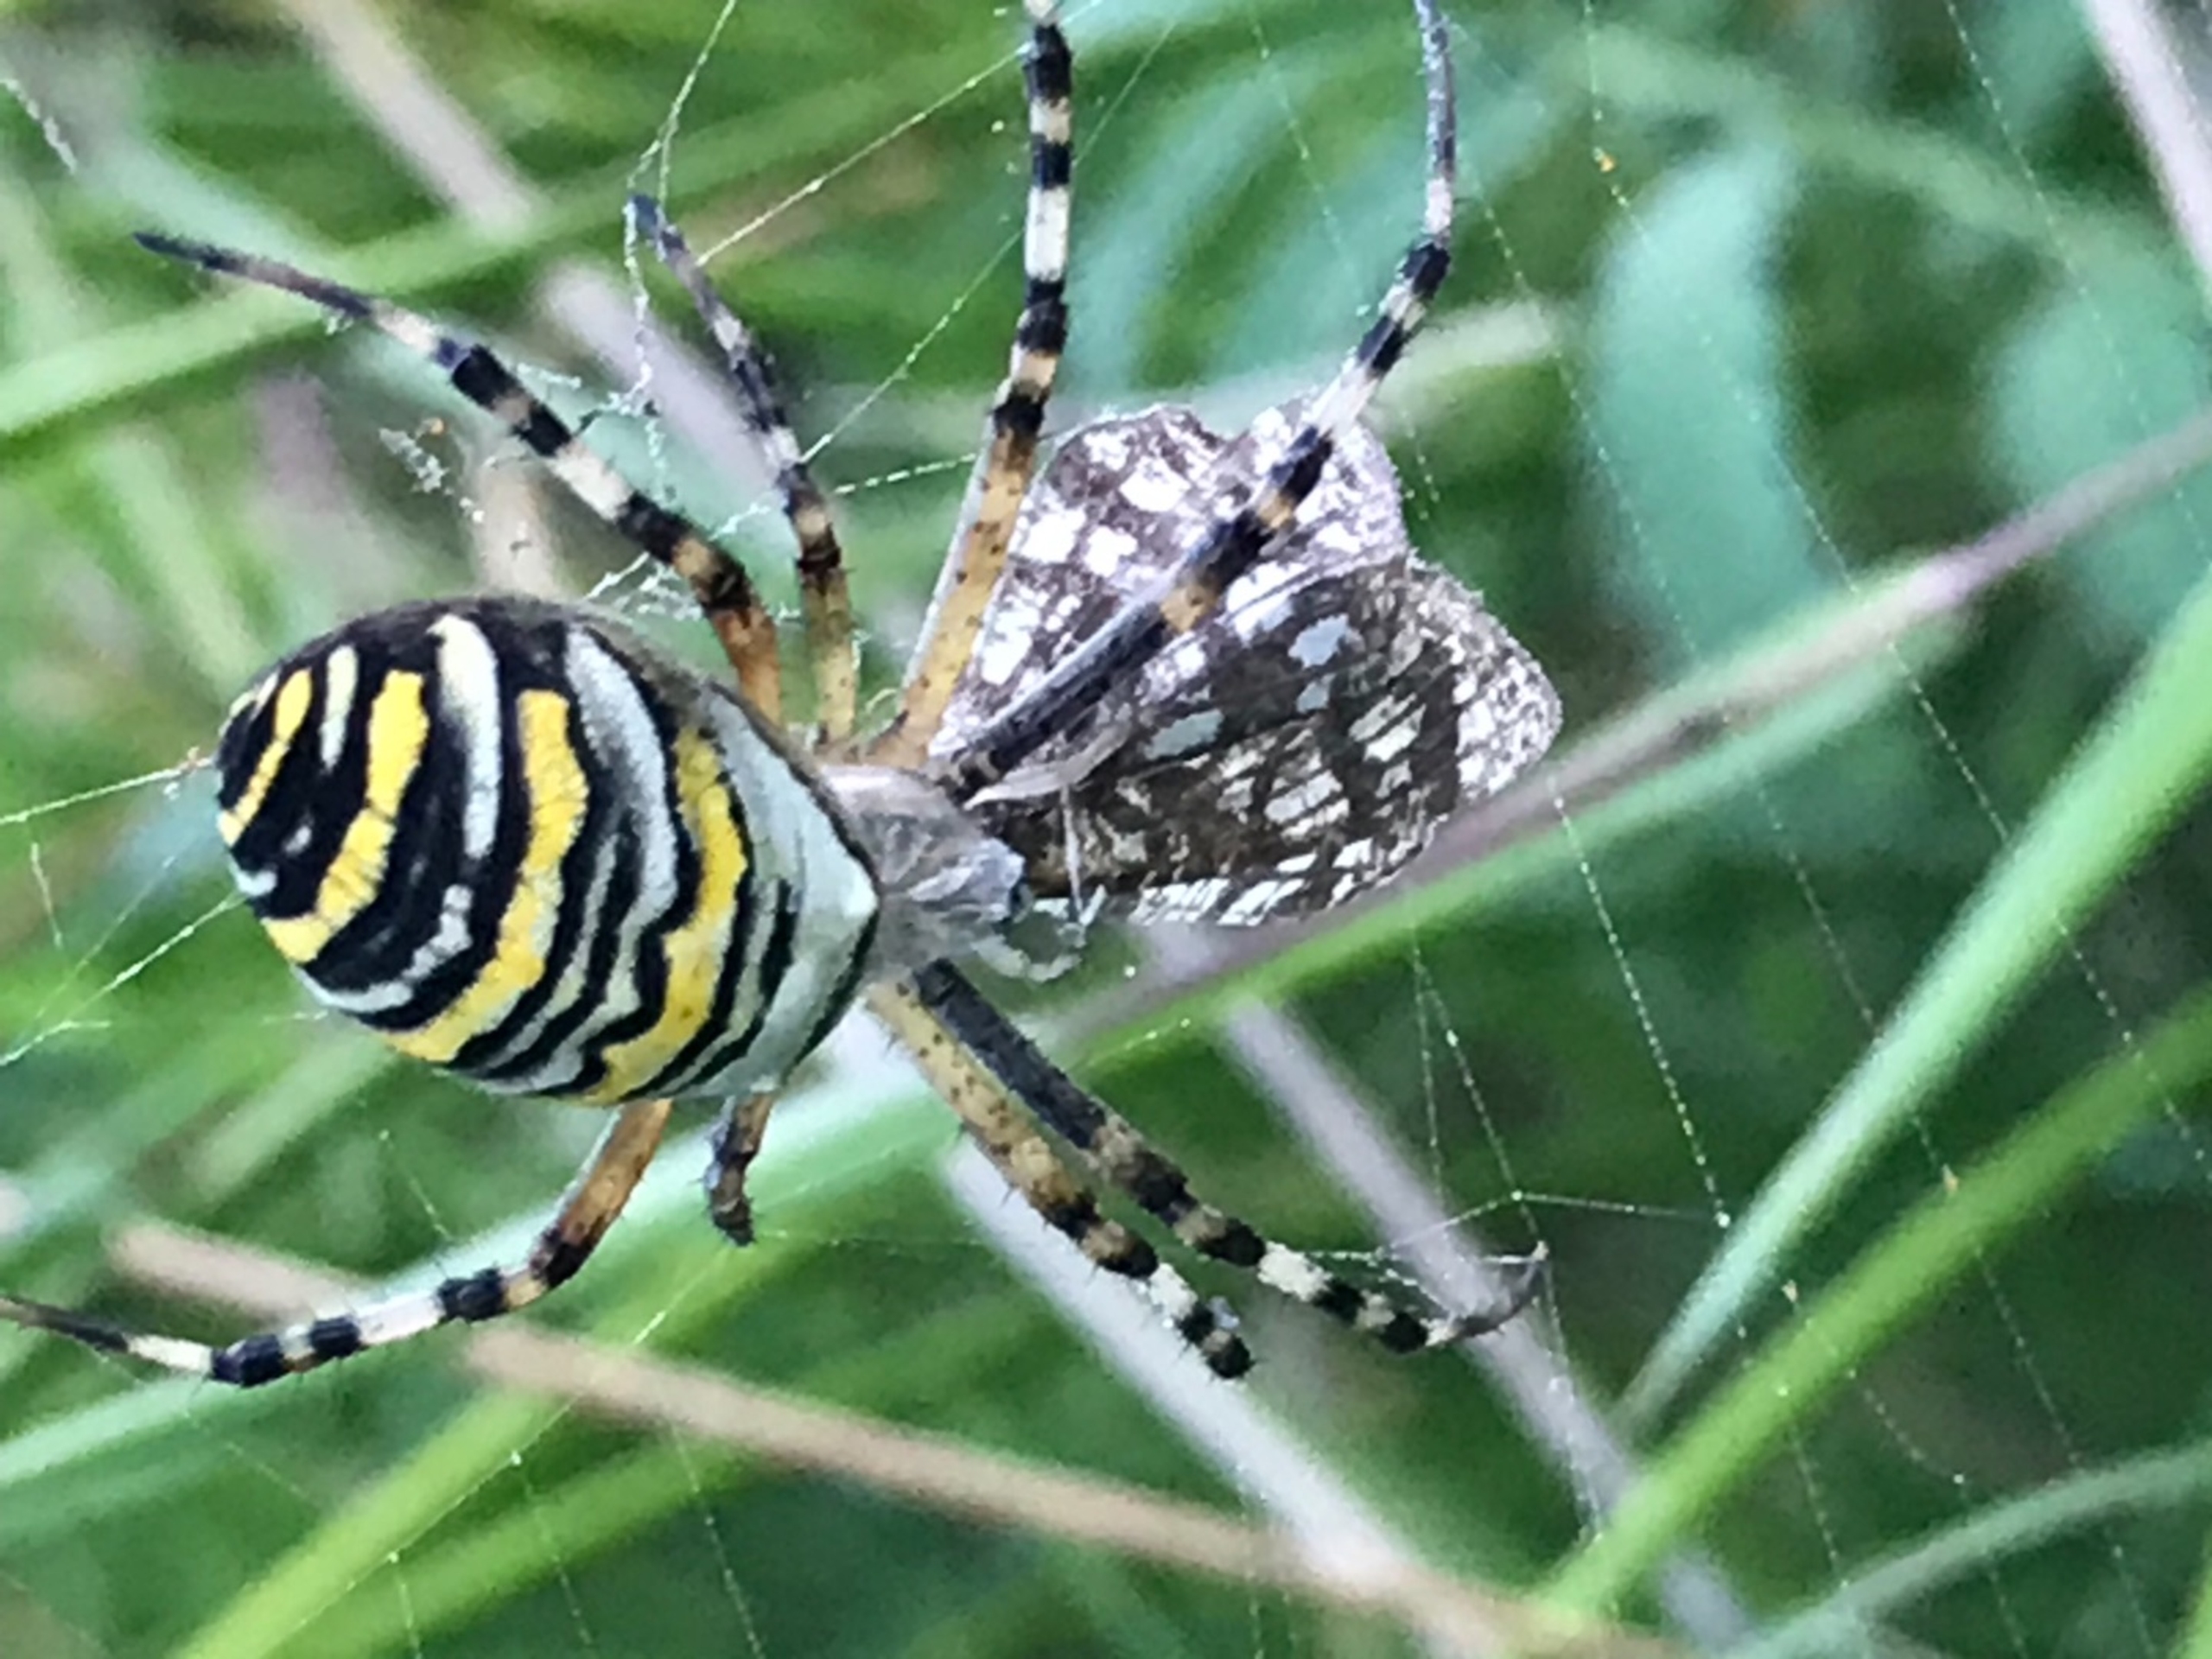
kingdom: Animalia
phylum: Arthropoda
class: Arachnida
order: Araneae
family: Araneidae
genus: Argiope
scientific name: Argiope bruennichi
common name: Hvepseedderkop
